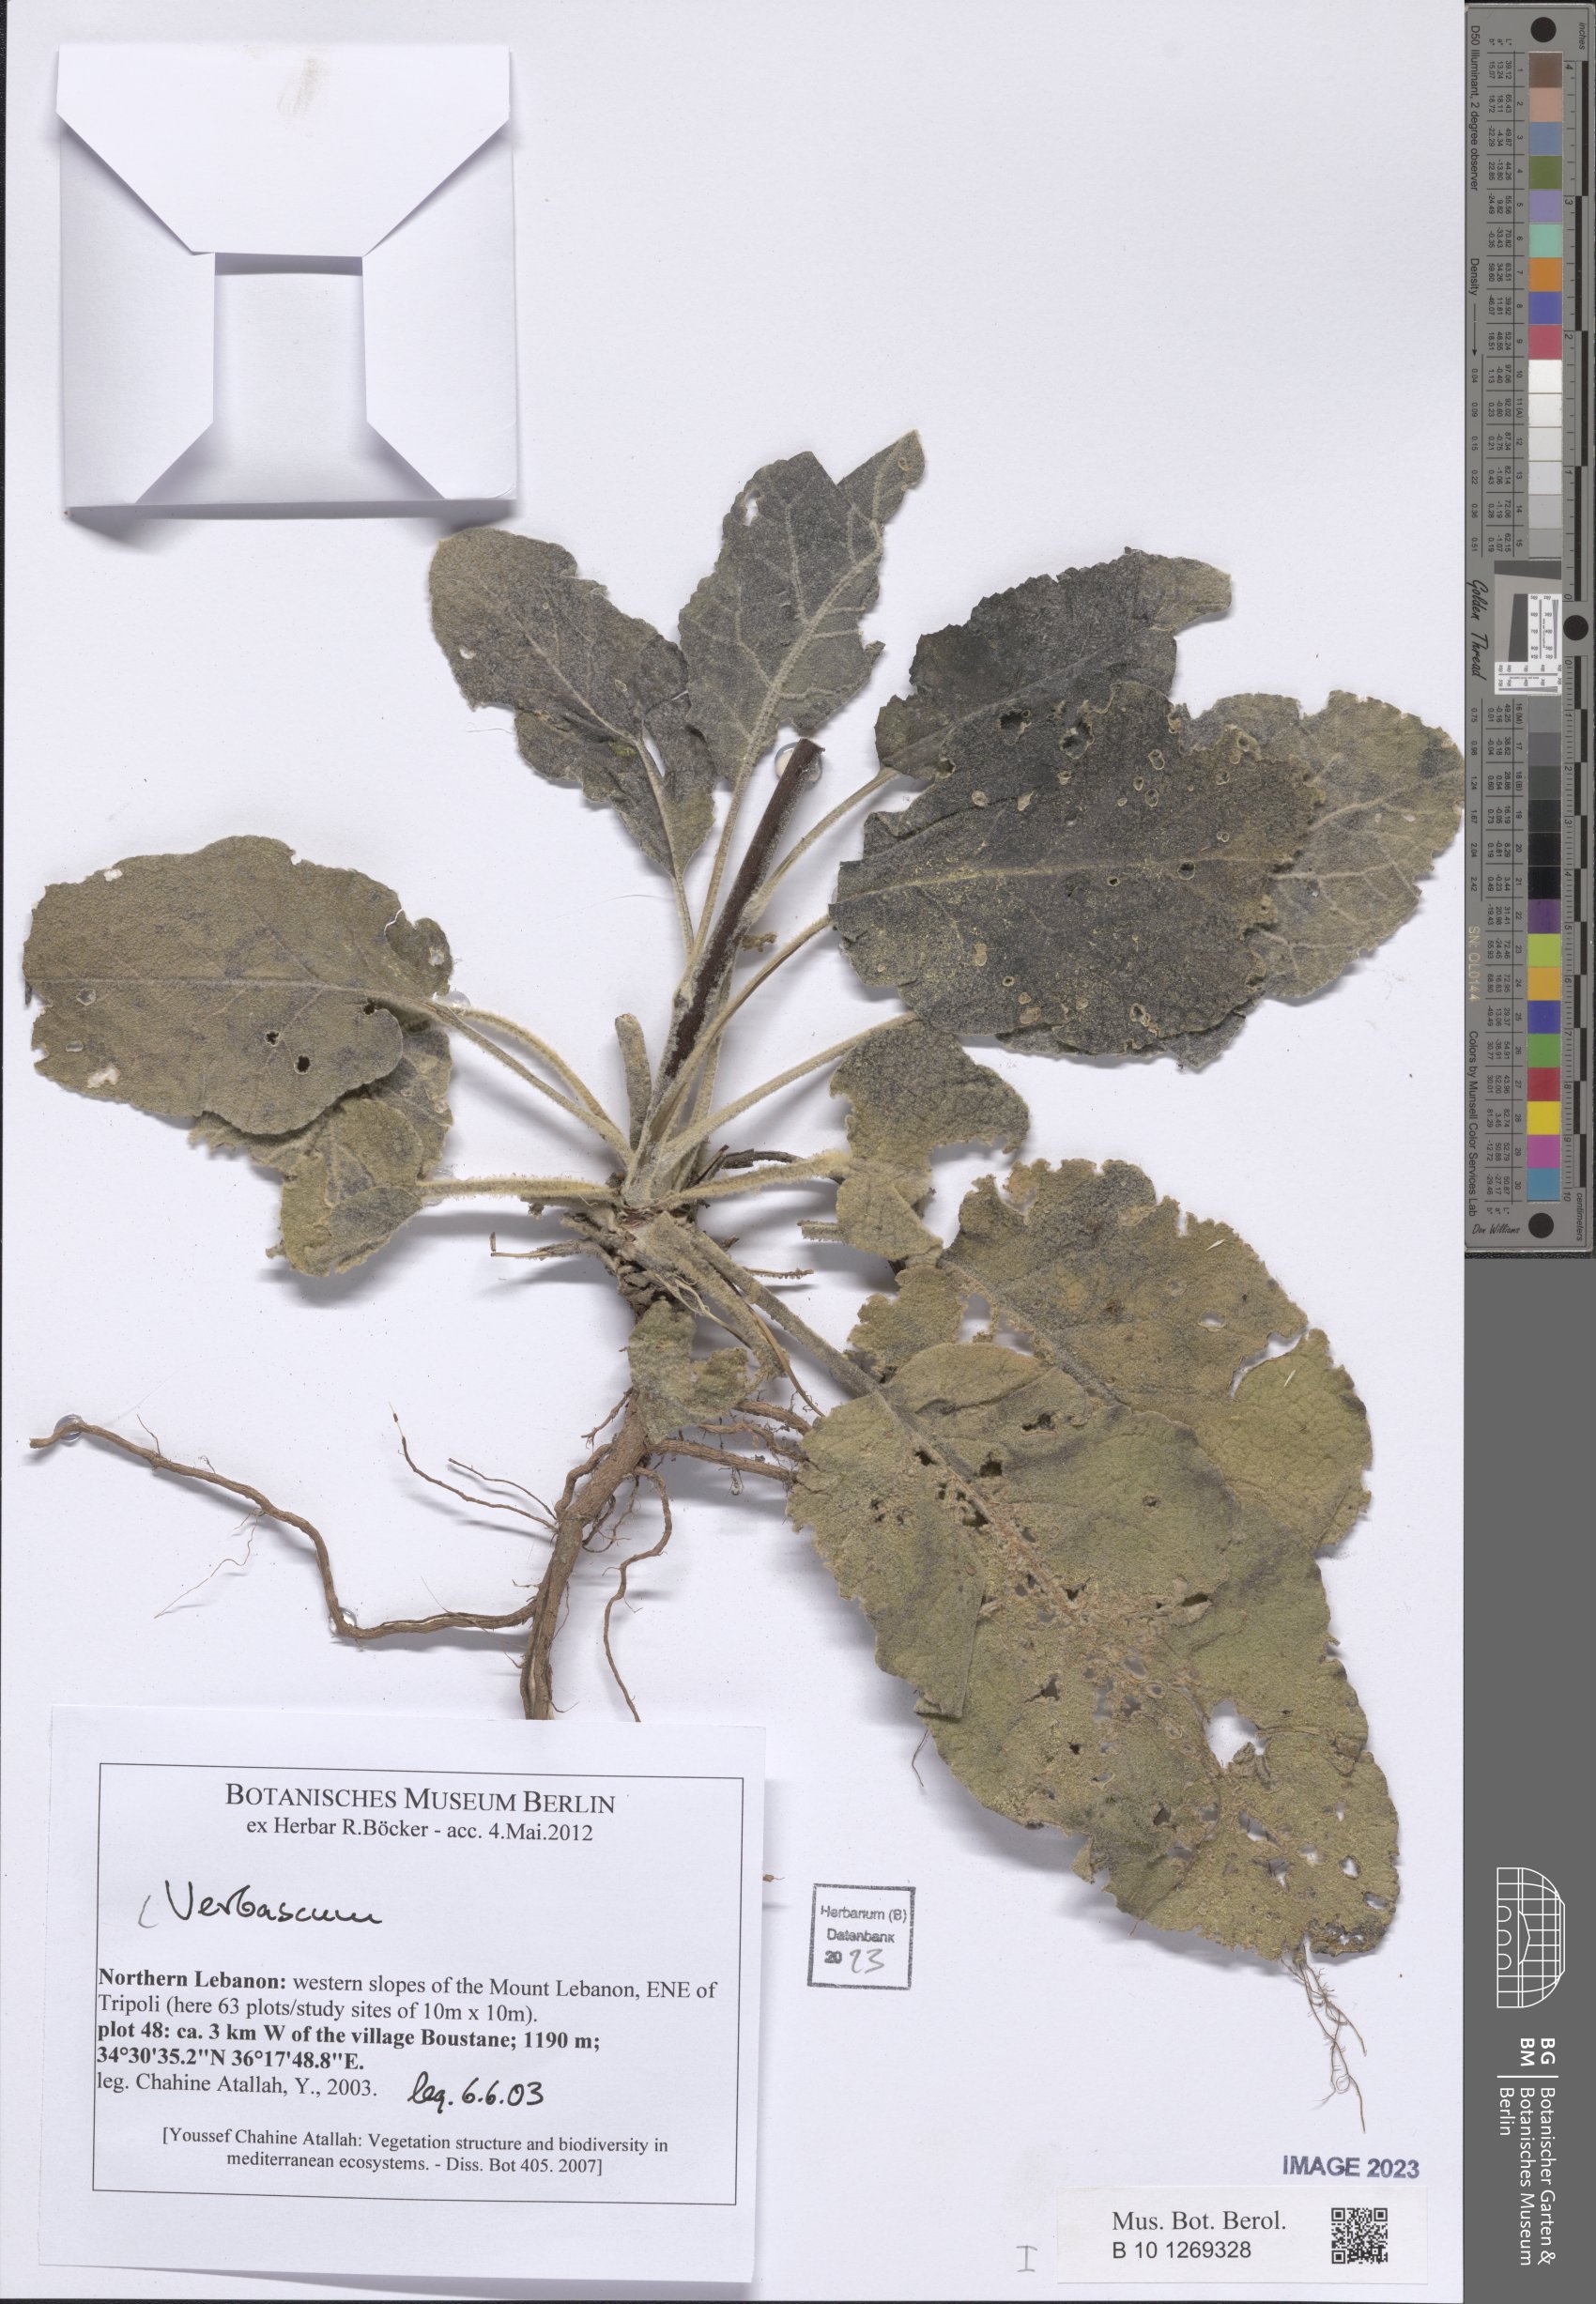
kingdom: Plantae
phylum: Tracheophyta
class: Magnoliopsida
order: Lamiales
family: Scrophulariaceae
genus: Verbascum
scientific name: Verbascum
